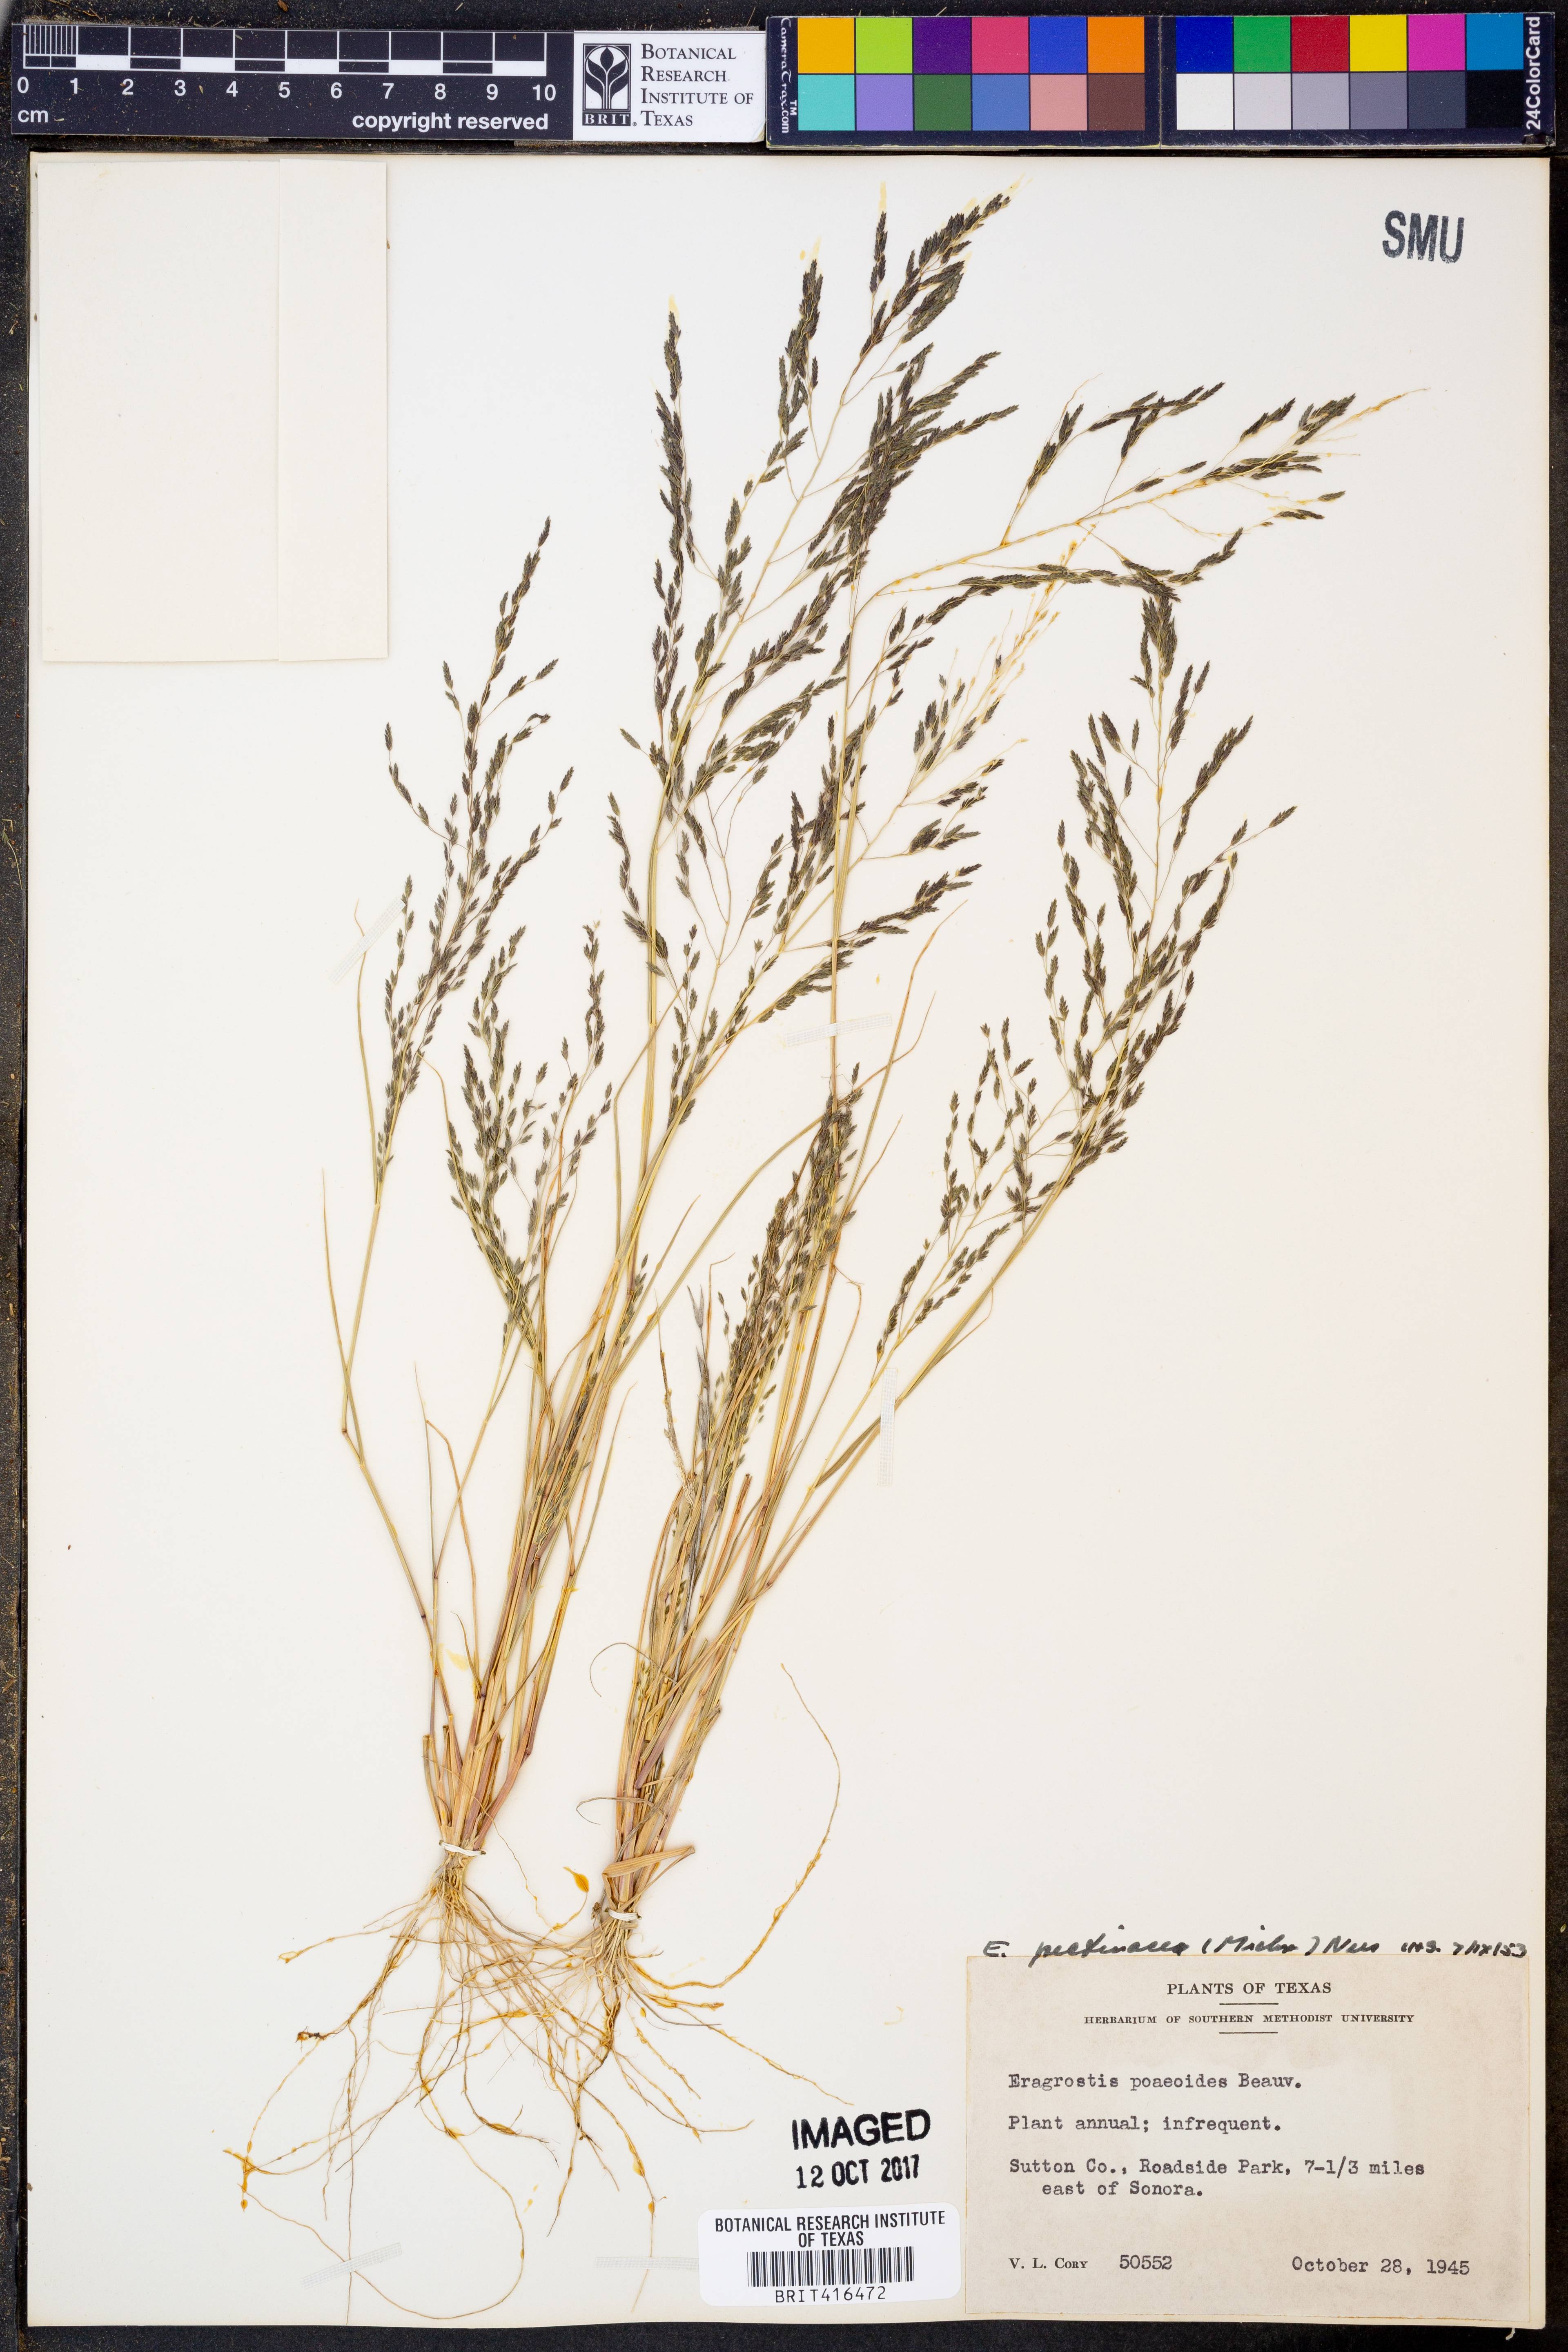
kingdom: Plantae
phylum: Tracheophyta
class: Liliopsida
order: Poales
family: Poaceae
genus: Eragrostis
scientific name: Eragrostis minor
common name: Small love-grass
